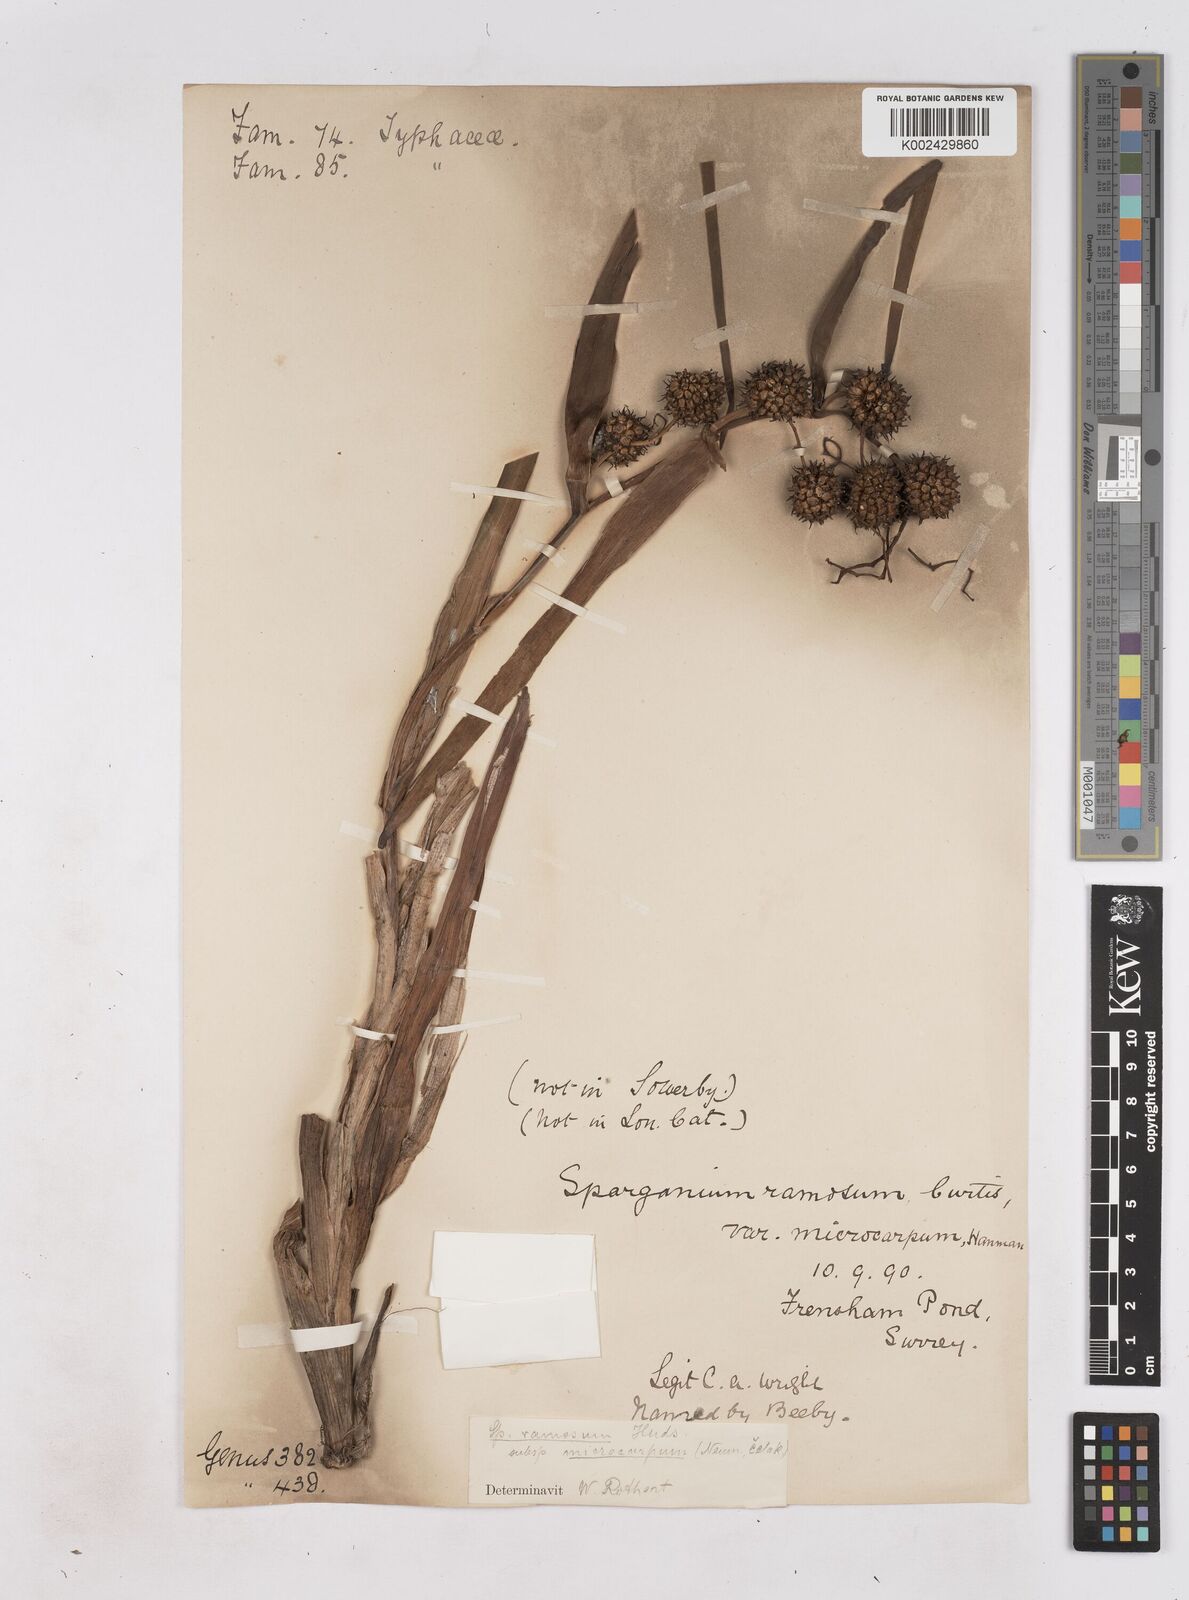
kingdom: Plantae
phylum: Tracheophyta
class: Liliopsida
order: Poales
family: Typhaceae
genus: Sparganium
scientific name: Sparganium erectum
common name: Branched bur-reed
